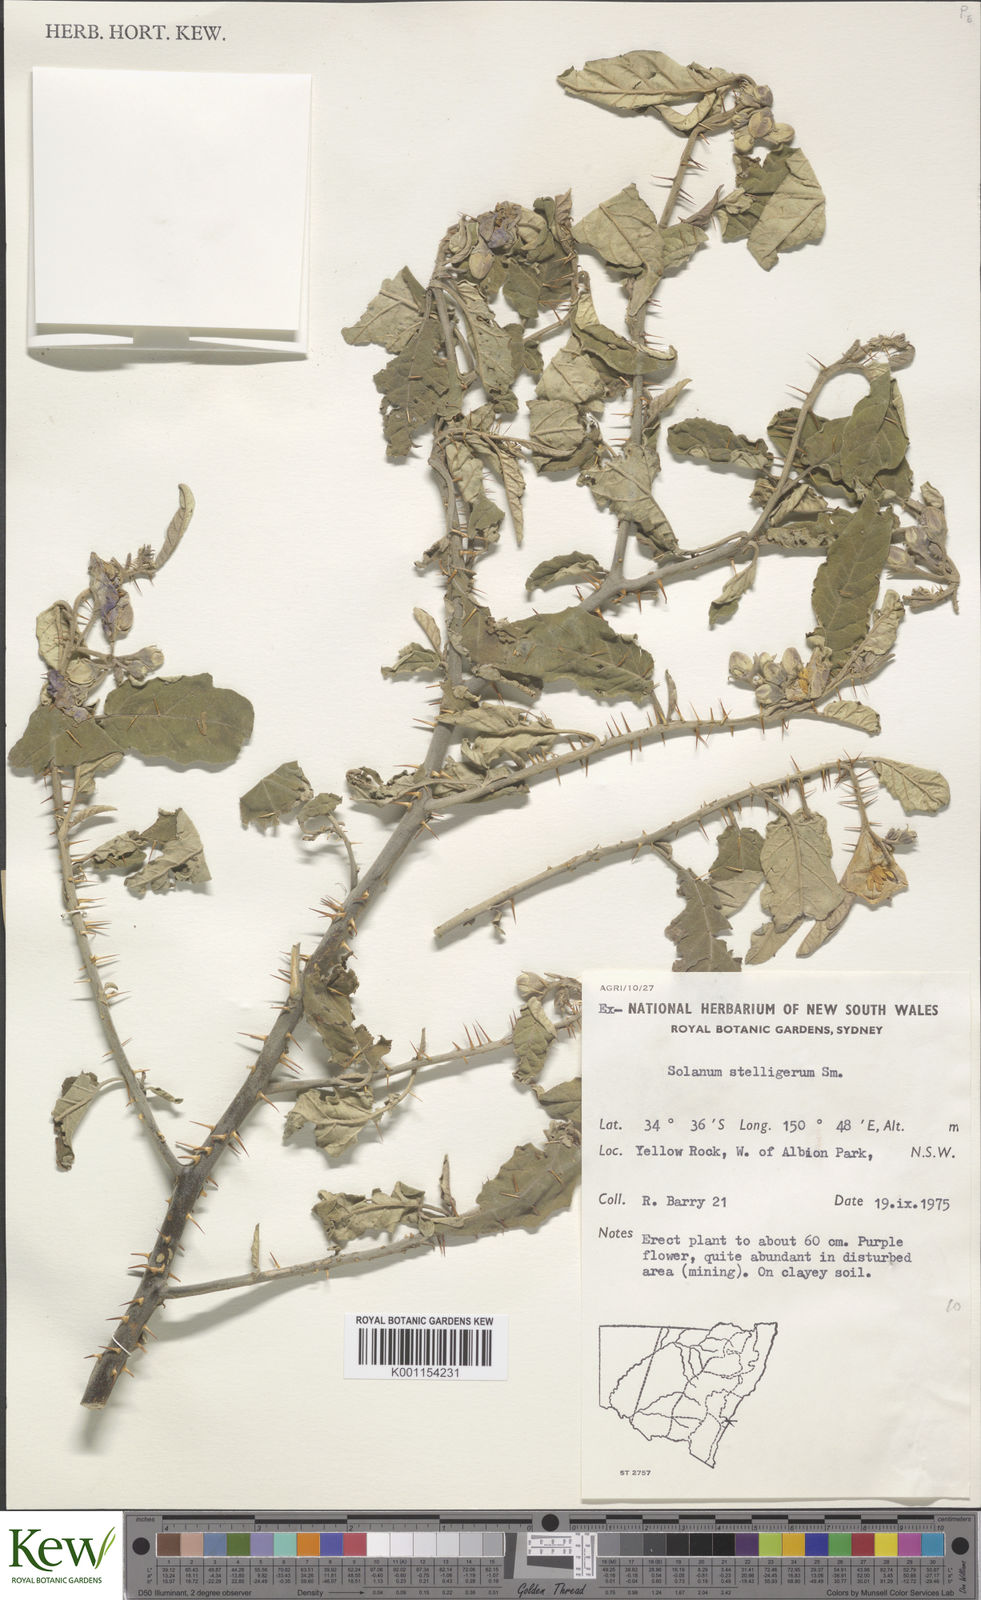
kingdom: Plantae
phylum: Tracheophyta
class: Magnoliopsida
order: Solanales
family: Solanaceae
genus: Solanum
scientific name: Solanum stelligerum
